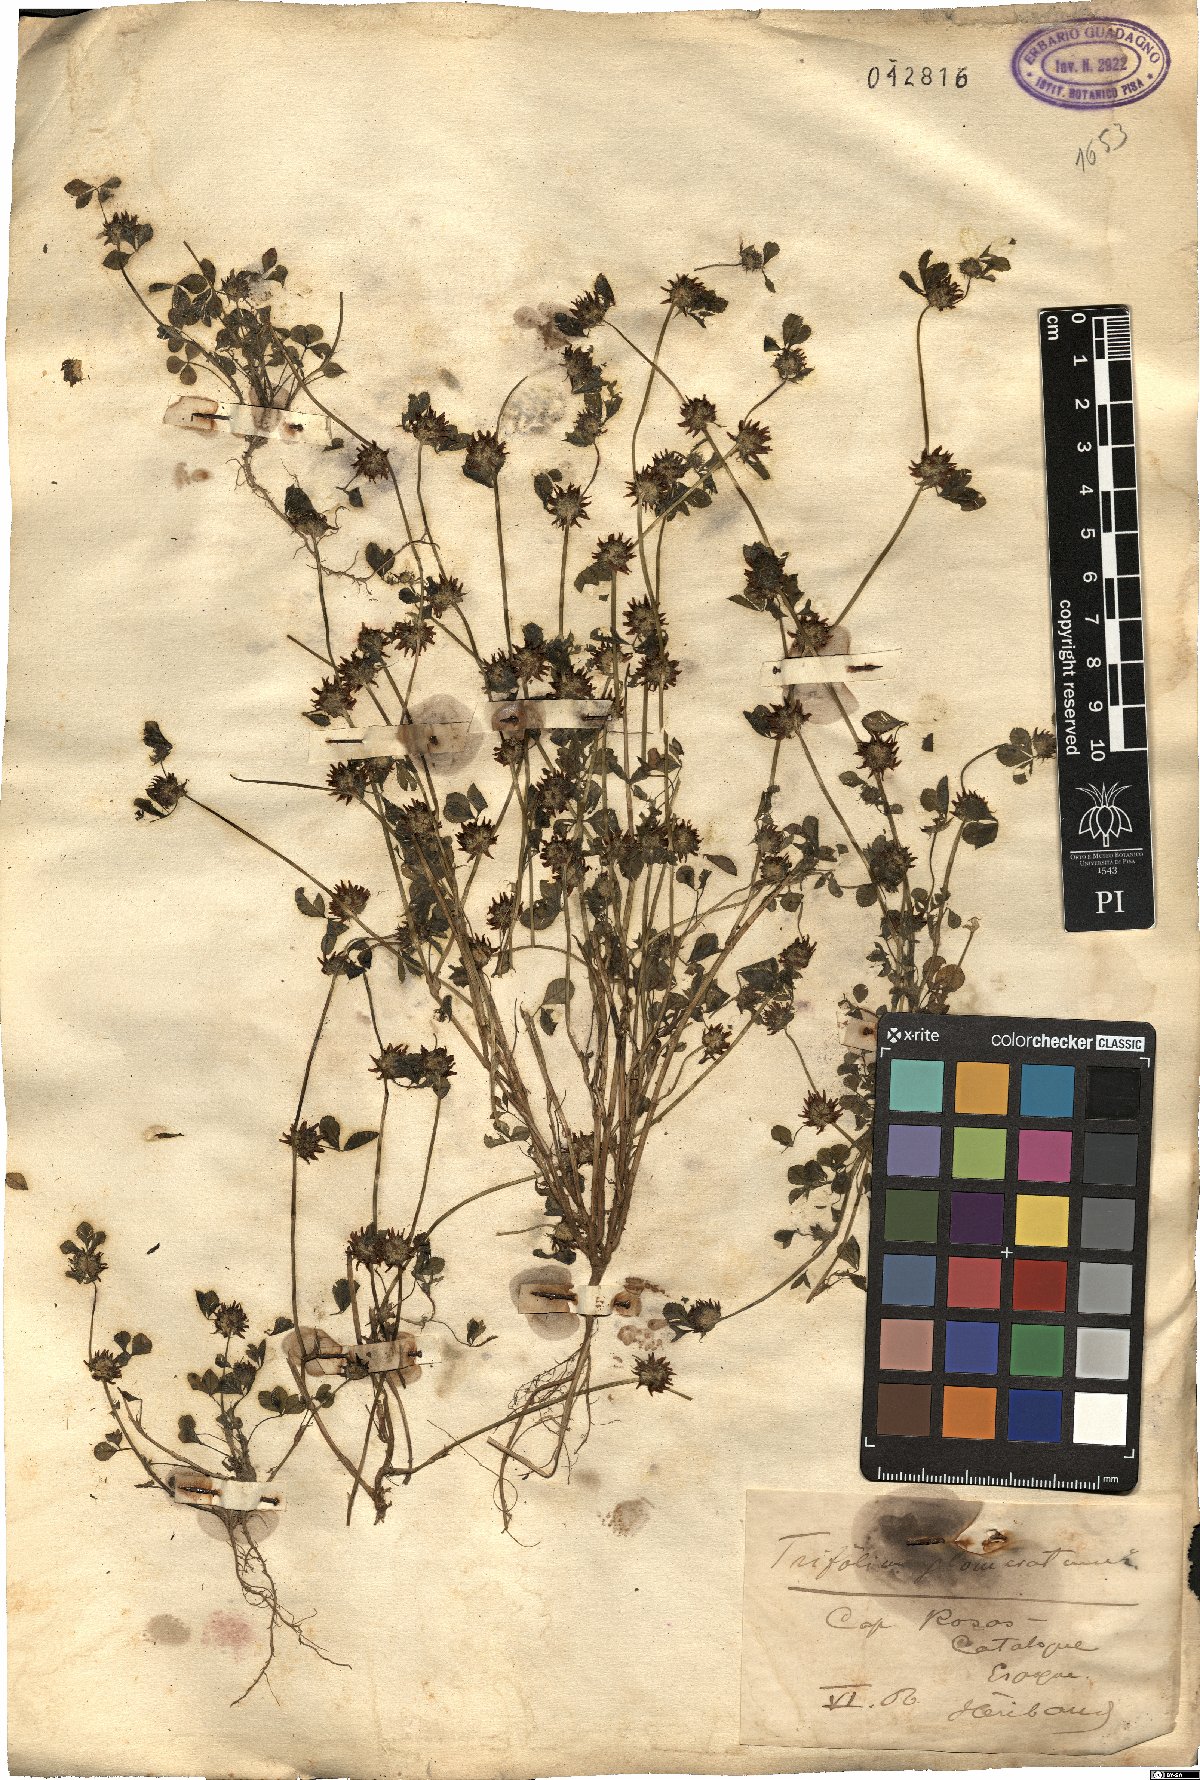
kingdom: Plantae
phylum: Tracheophyta
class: Magnoliopsida
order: Fabales
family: Fabaceae
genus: Trifolium
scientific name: Trifolium glomeratum
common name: Clustered clover
